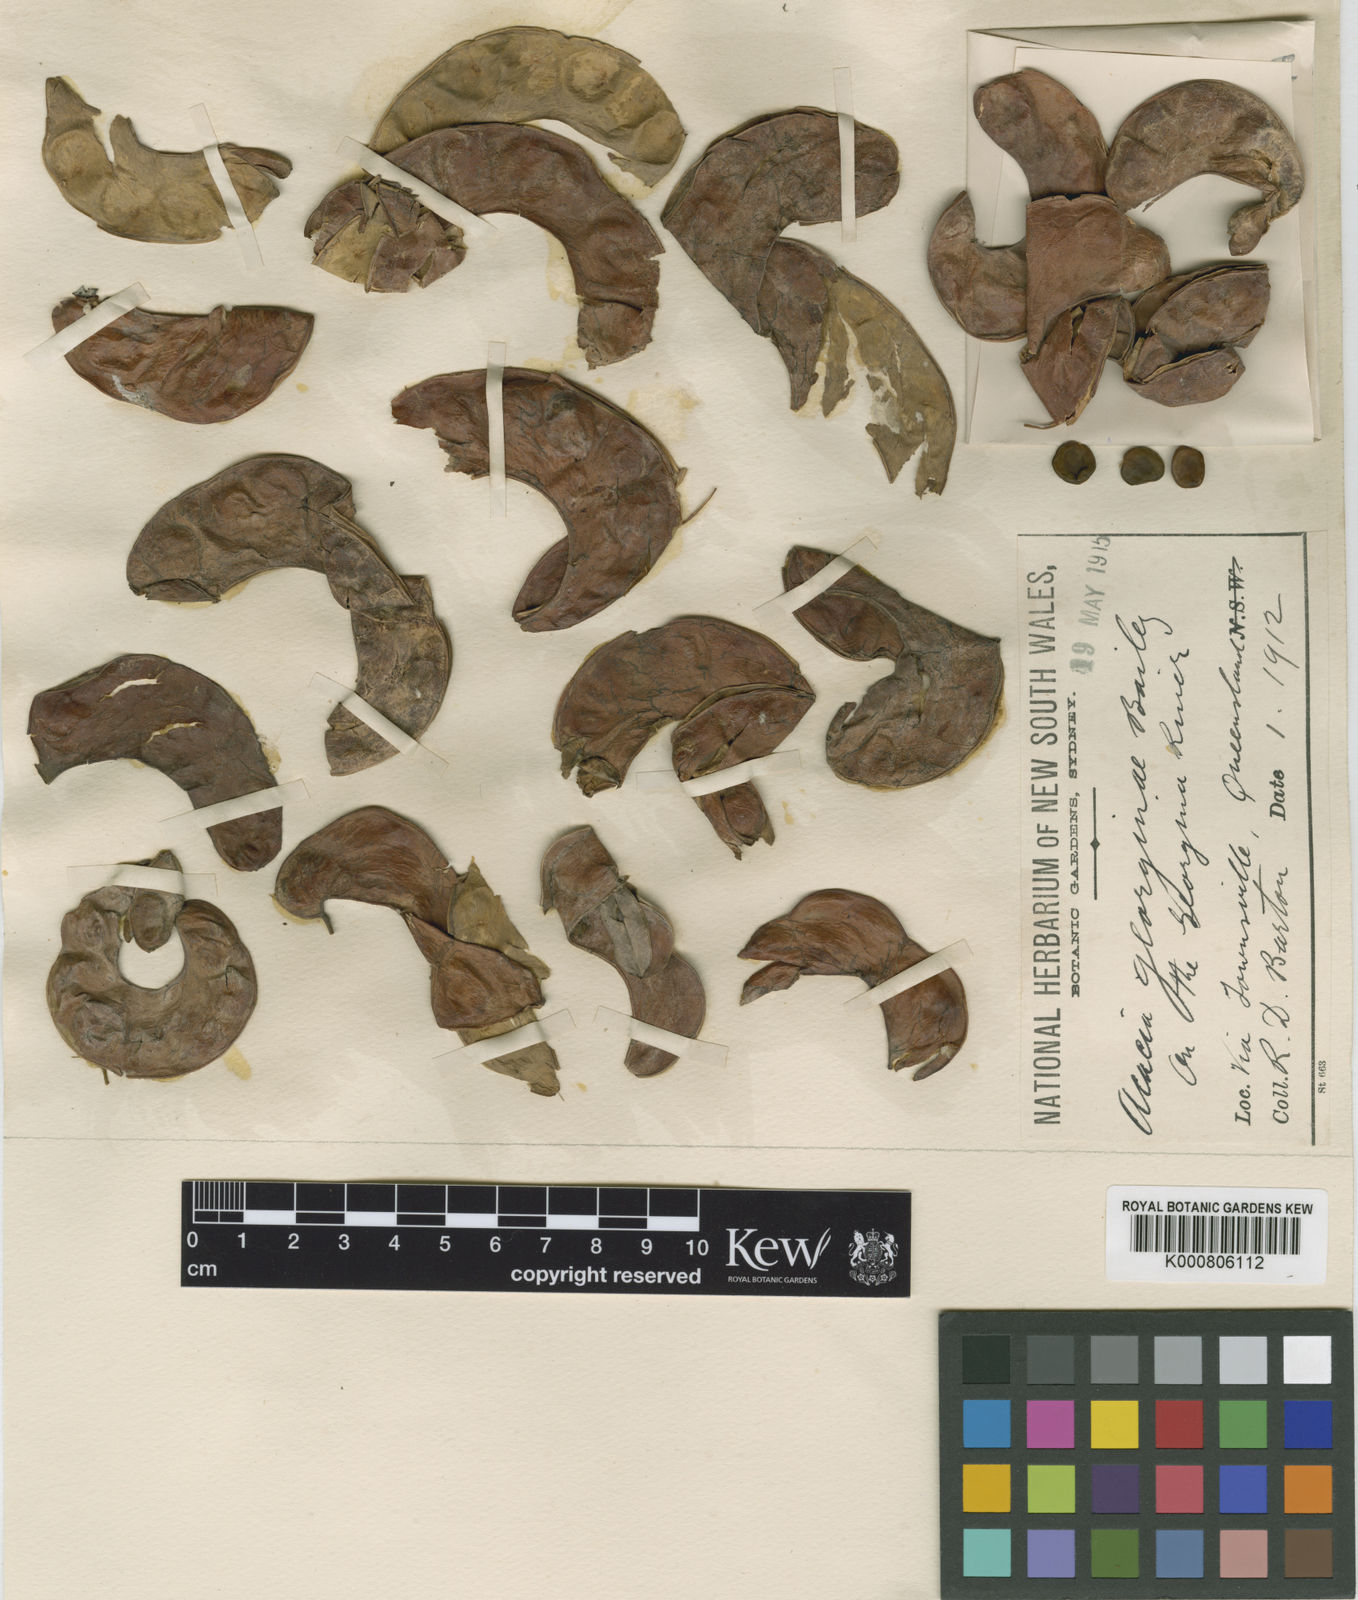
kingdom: Plantae
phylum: Tracheophyta
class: Magnoliopsida
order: Fabales
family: Fabaceae
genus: Acacia
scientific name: Acacia georginae
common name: Georgina gidgee
